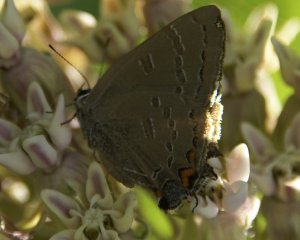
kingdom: Animalia
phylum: Arthropoda
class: Insecta
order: Lepidoptera
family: Lycaenidae
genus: Satyrium
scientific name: Satyrium calanus
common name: Banded Hairstreak
